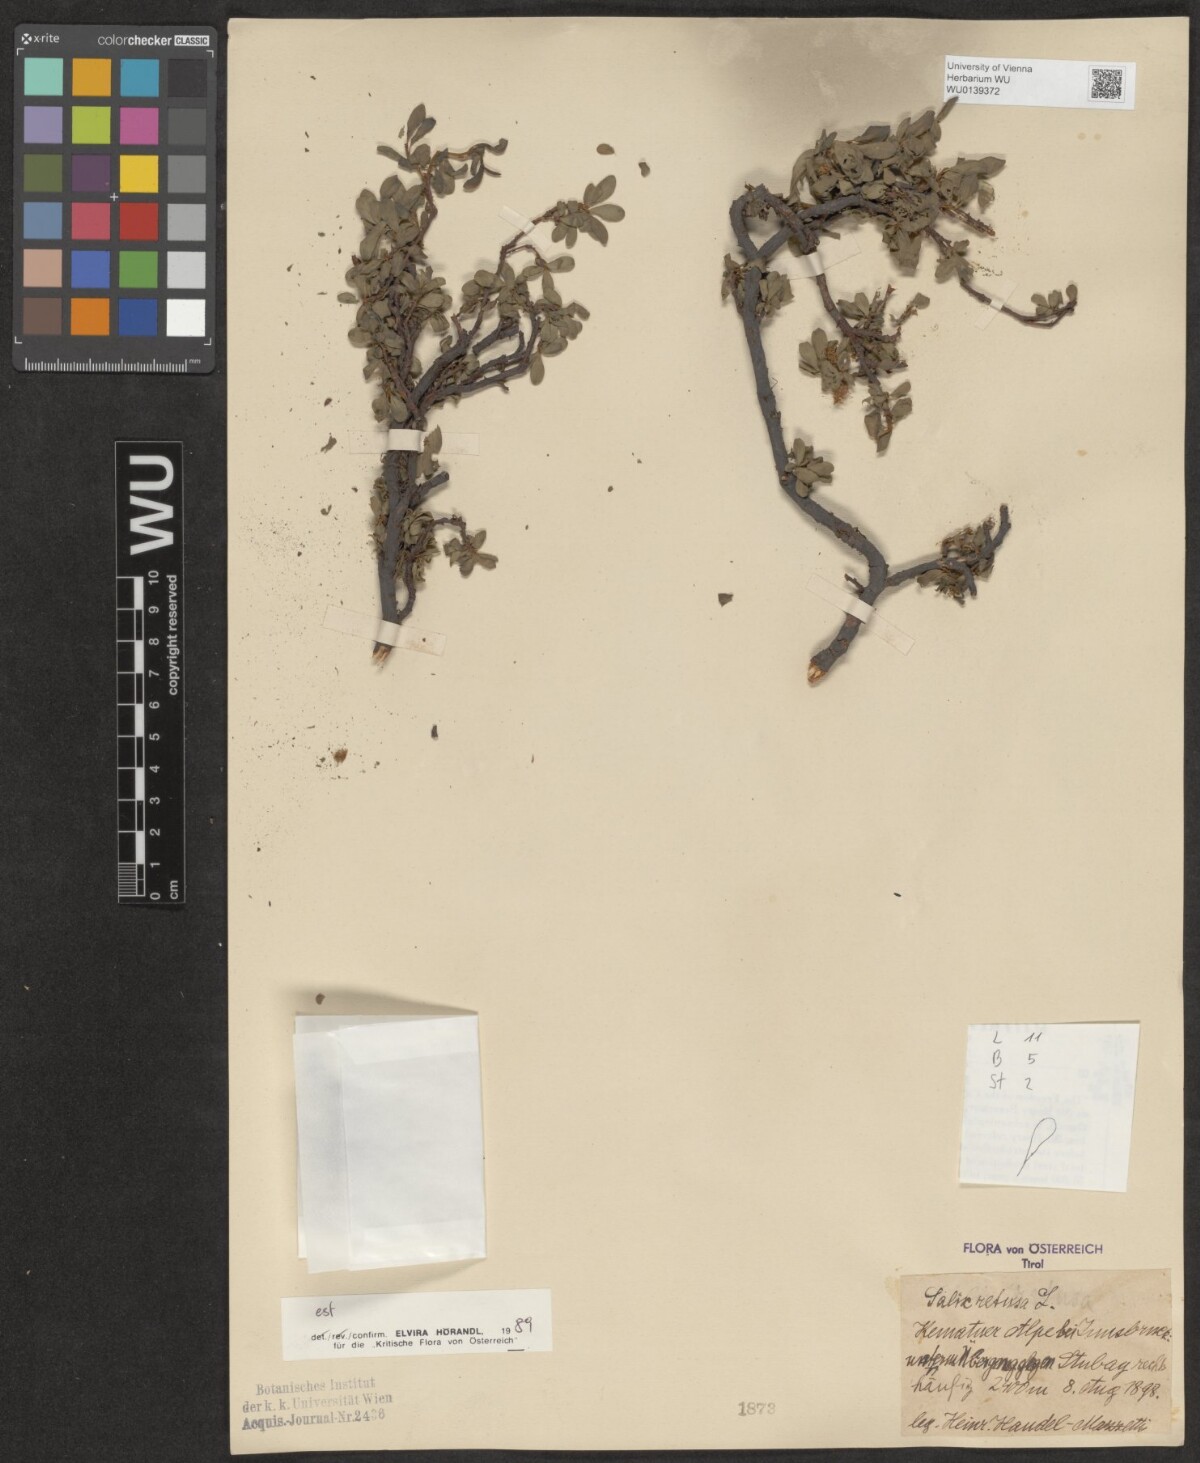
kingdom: Plantae
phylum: Tracheophyta
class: Magnoliopsida
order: Malpighiales
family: Salicaceae
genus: Salix
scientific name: Salix retusa
